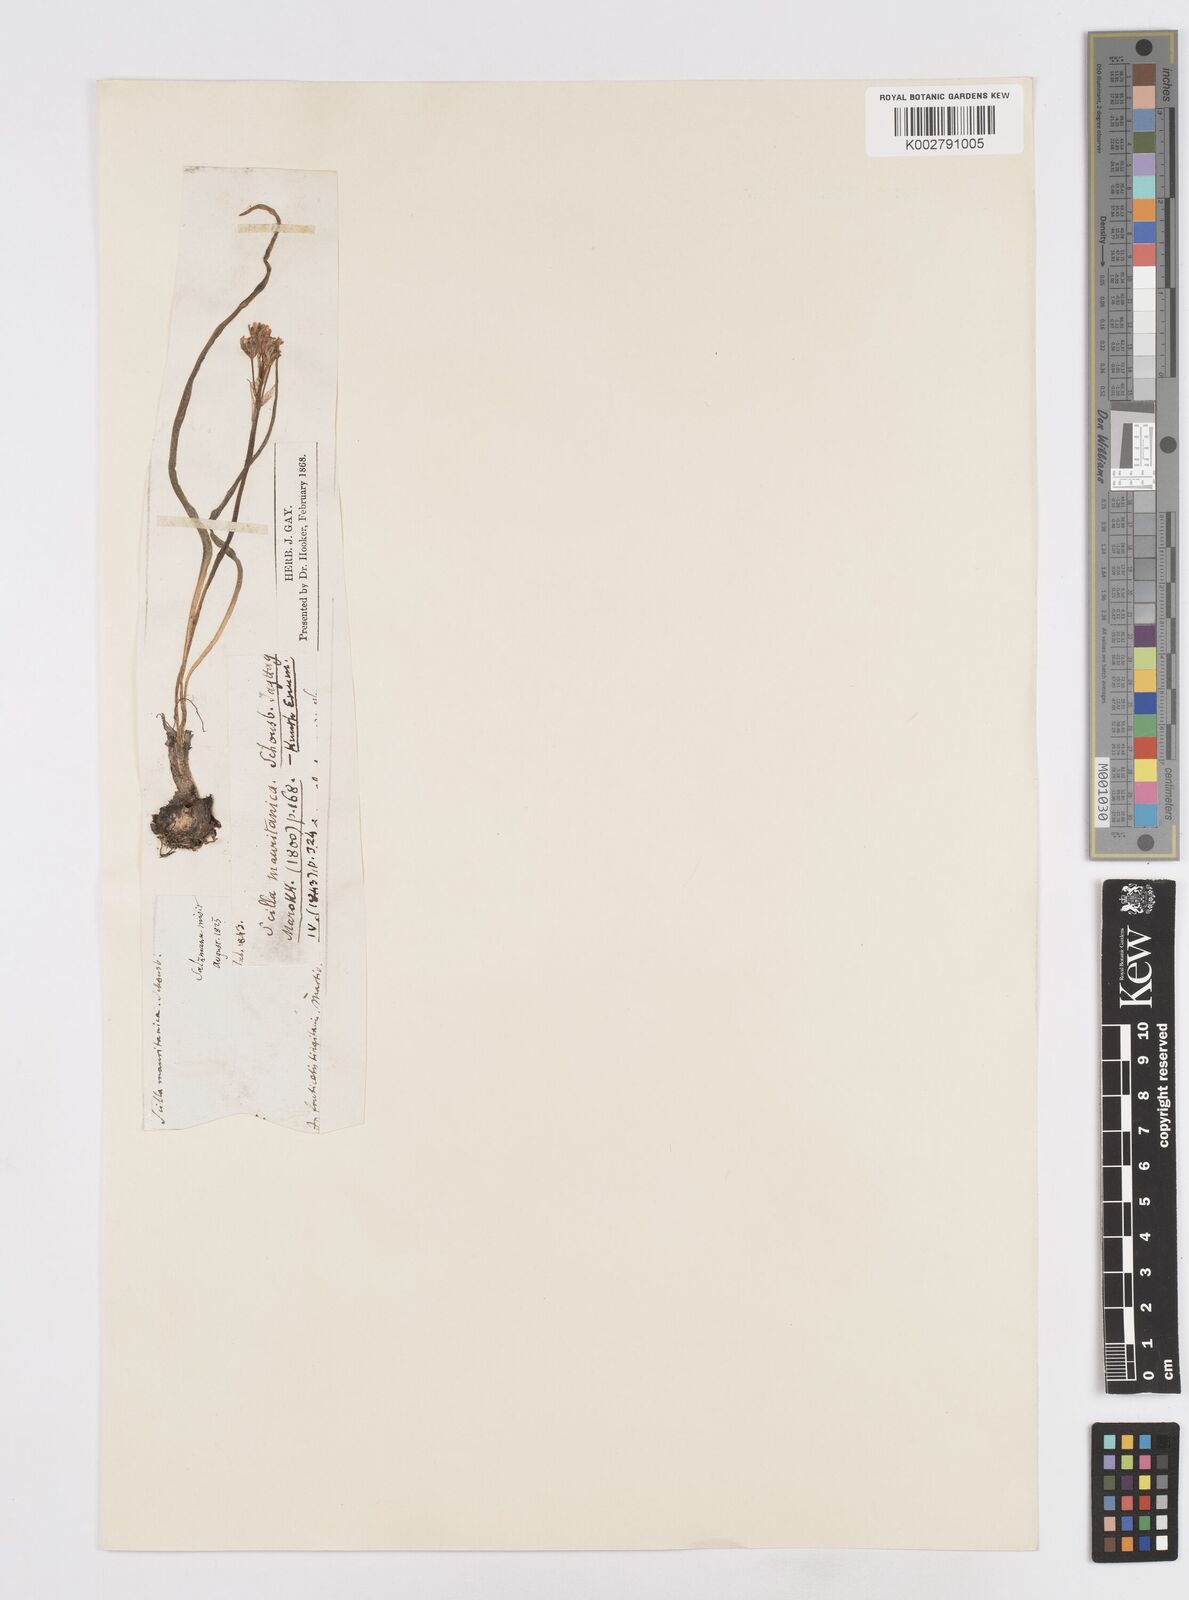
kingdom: Plantae
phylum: Tracheophyta
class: Liliopsida
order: Asparagales
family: Asparagaceae
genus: Hyacinthoides
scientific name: Hyacinthoides mauritanica
